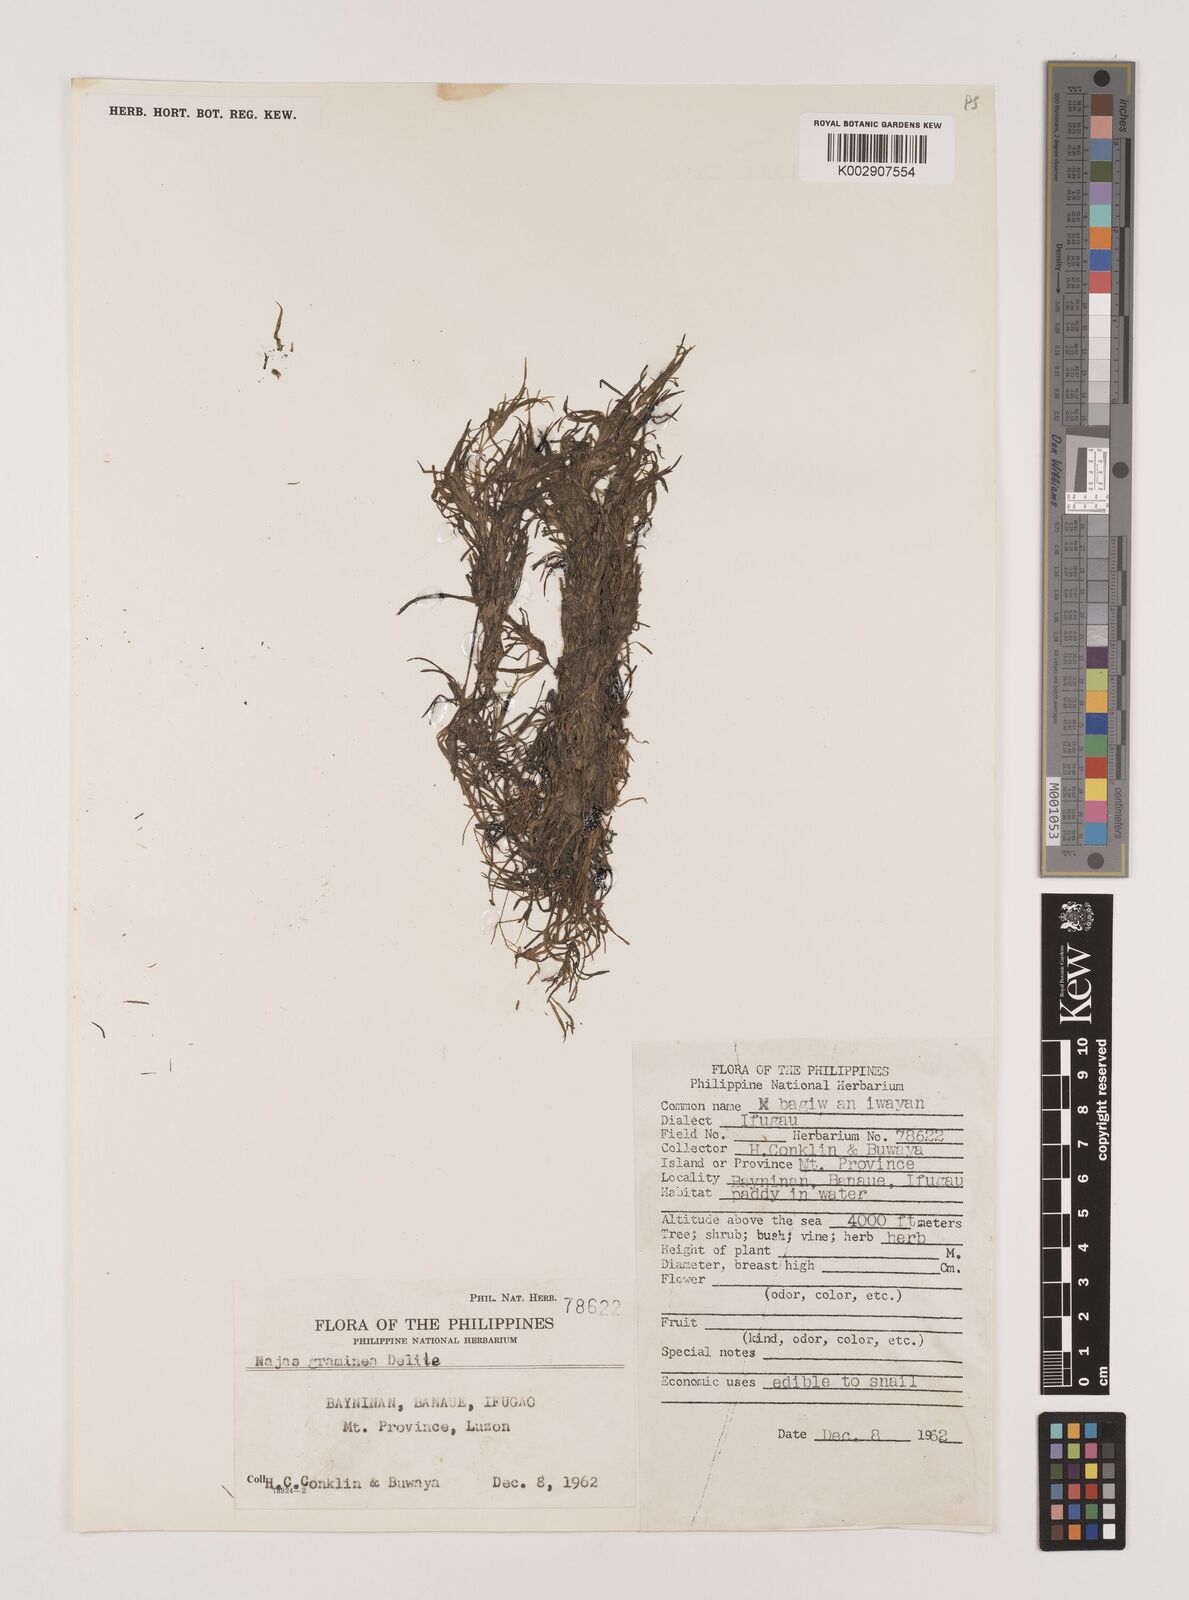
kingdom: Plantae
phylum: Tracheophyta
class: Liliopsida
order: Alismatales
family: Hydrocharitaceae
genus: Najas
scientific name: Najas graminea
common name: Ricefield waternymph
